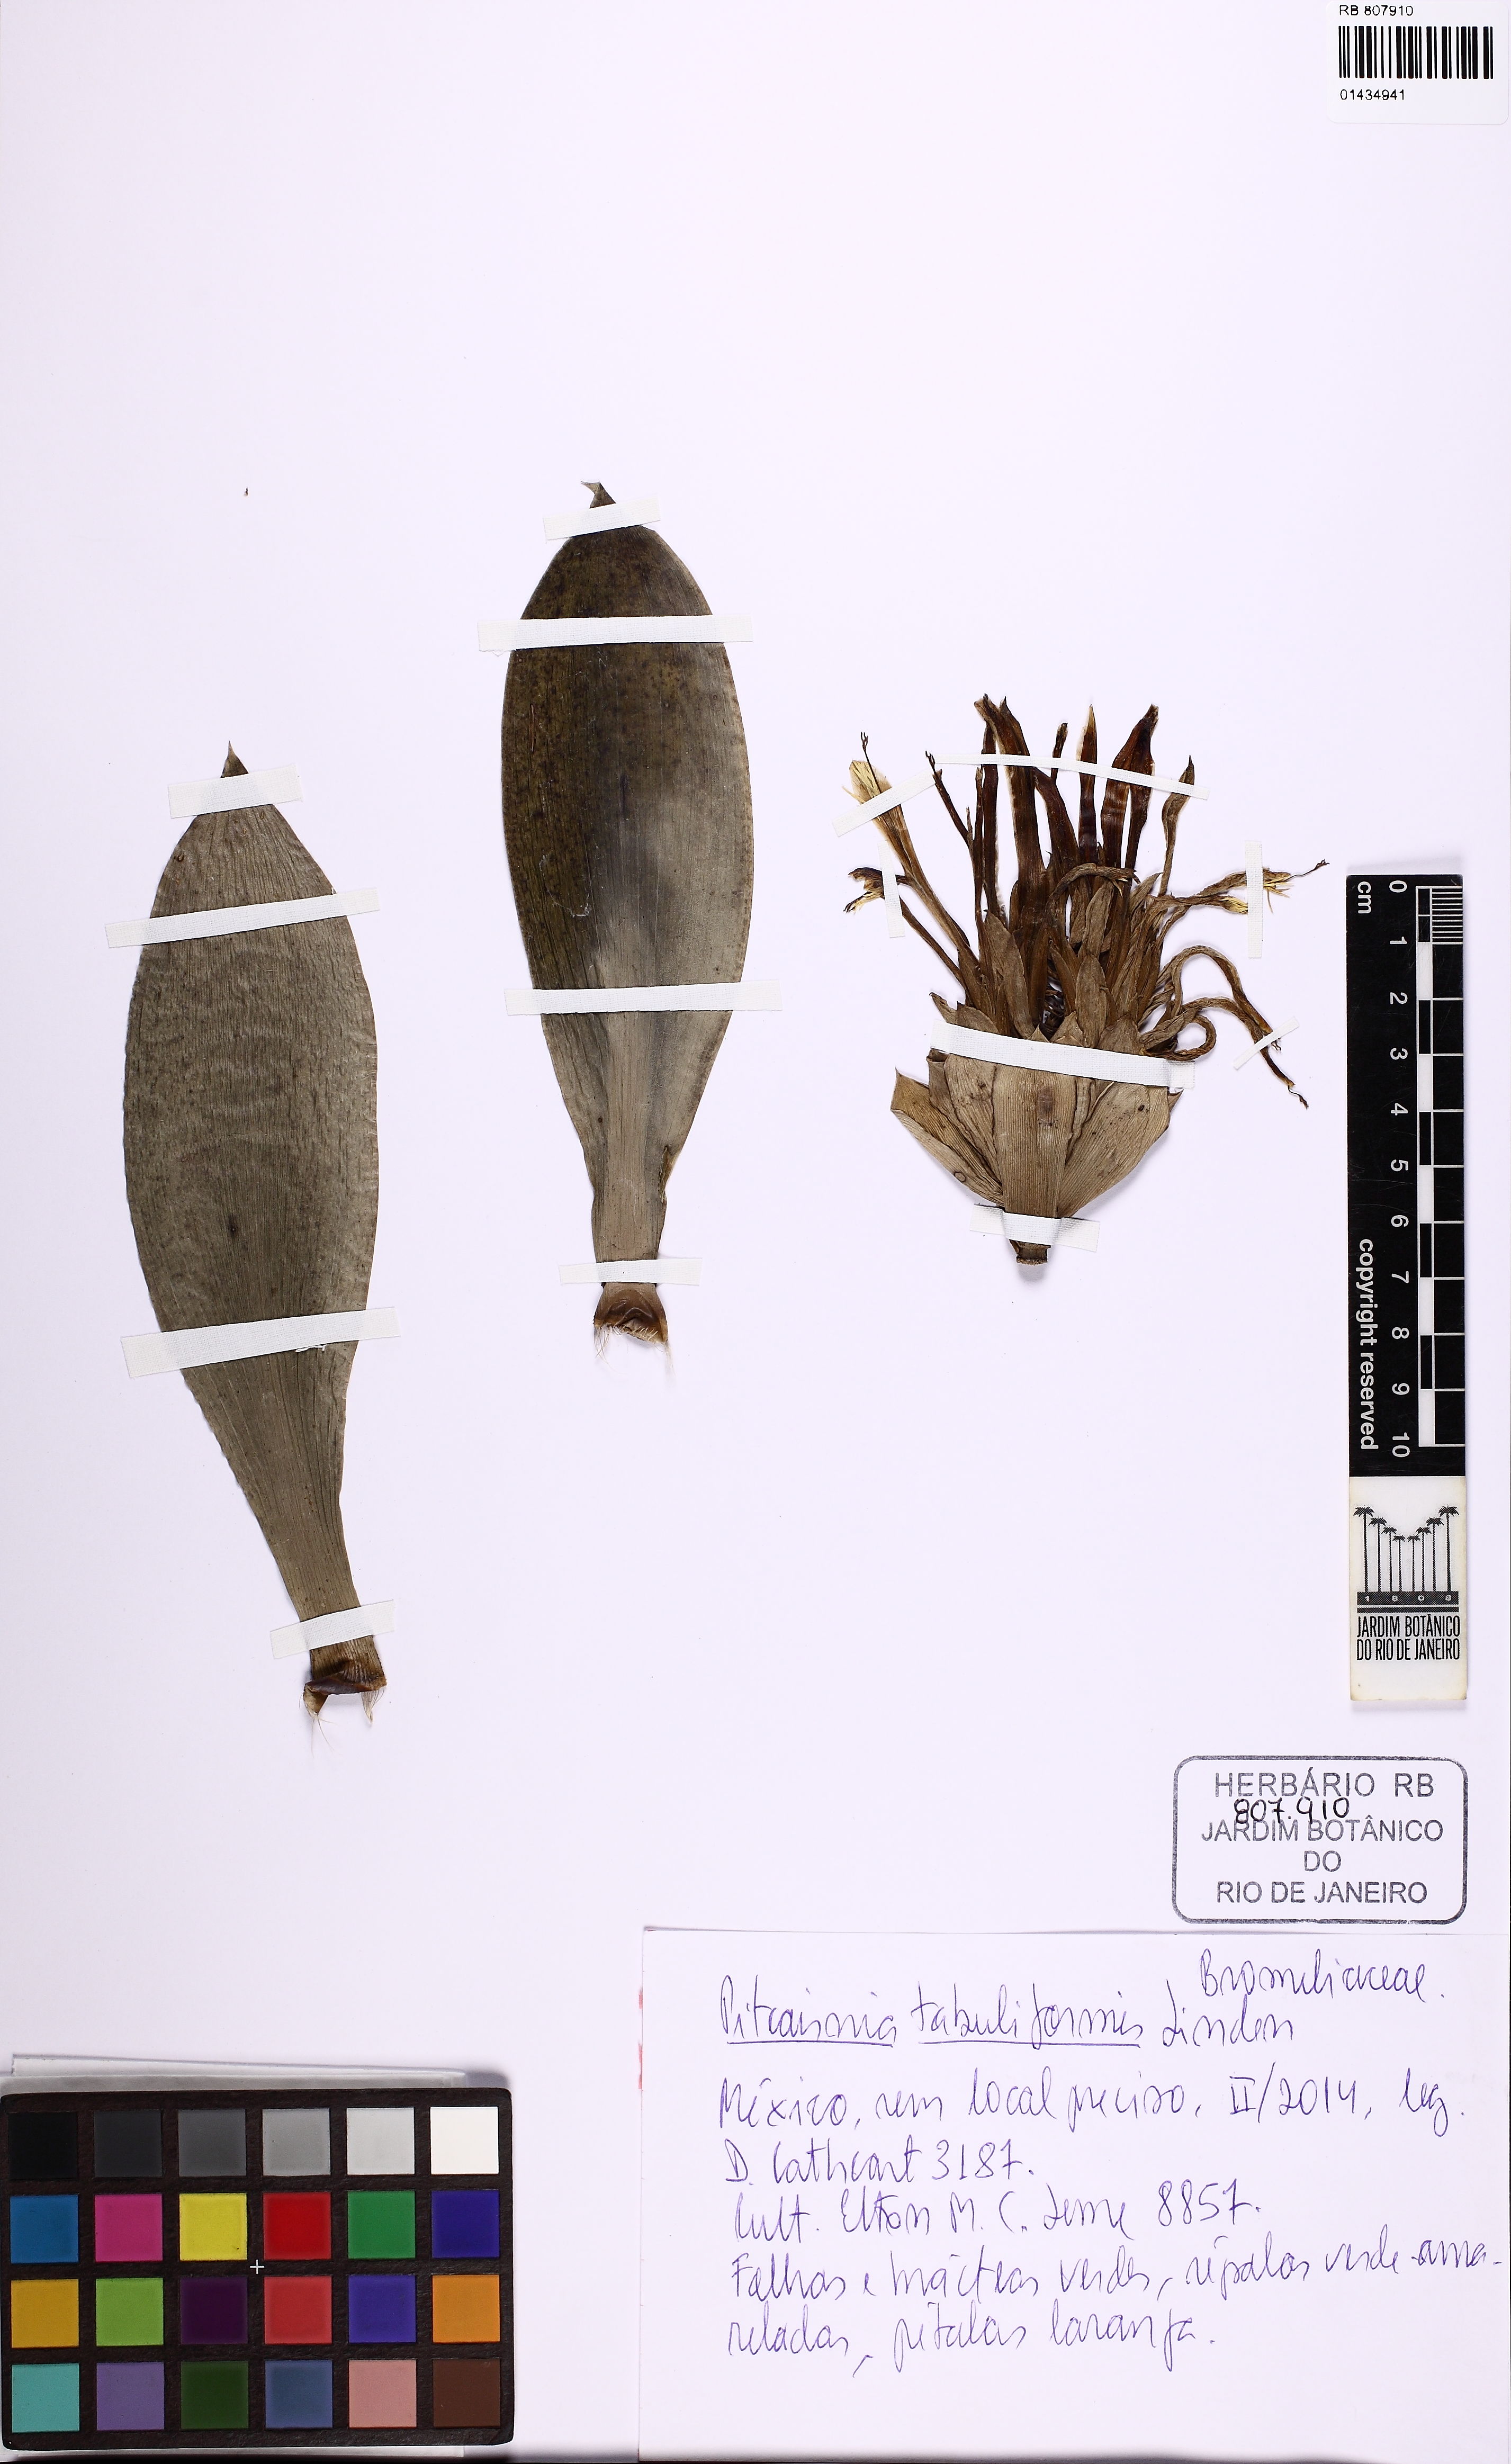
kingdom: Plantae
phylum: Tracheophyta
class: Liliopsida
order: Poales
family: Bromeliaceae
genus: Pitcairnia
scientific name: Pitcairnia tabuliformis
